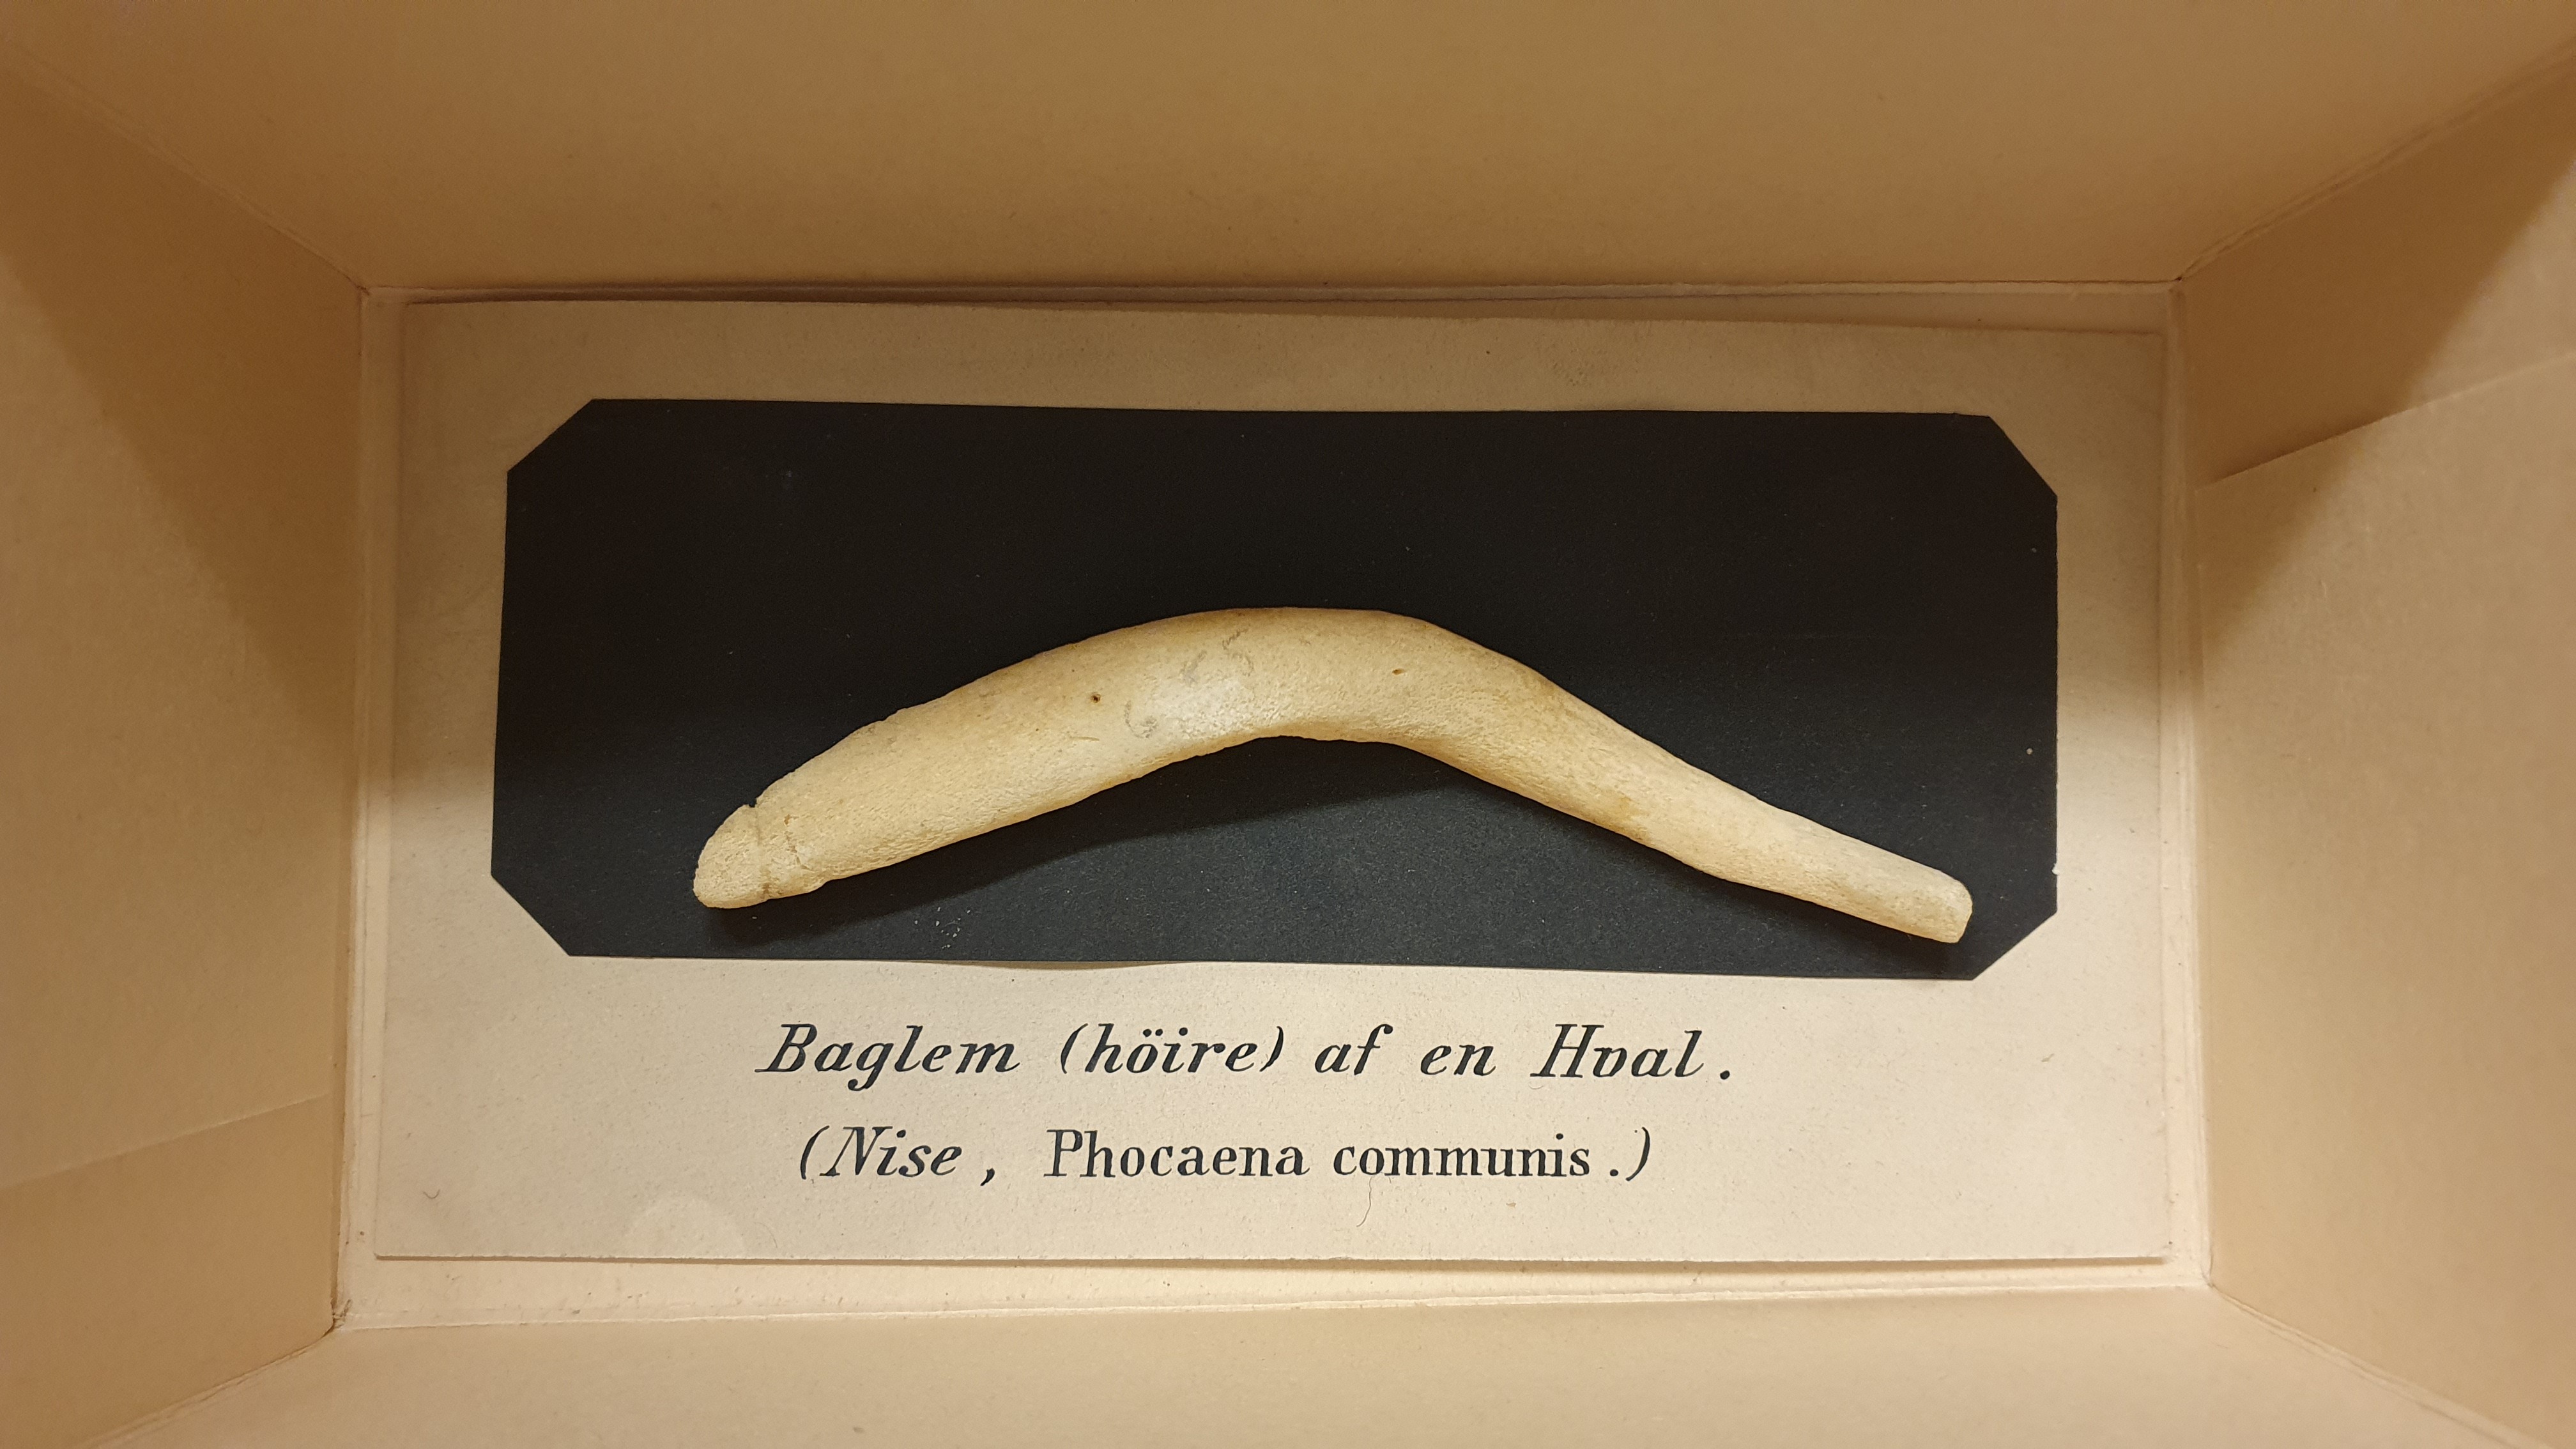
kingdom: Animalia
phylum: Chordata
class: Mammalia
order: Cetacea
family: Phocoenidae
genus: Phocoena
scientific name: Phocoena phocoena
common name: Harbor porpoise
